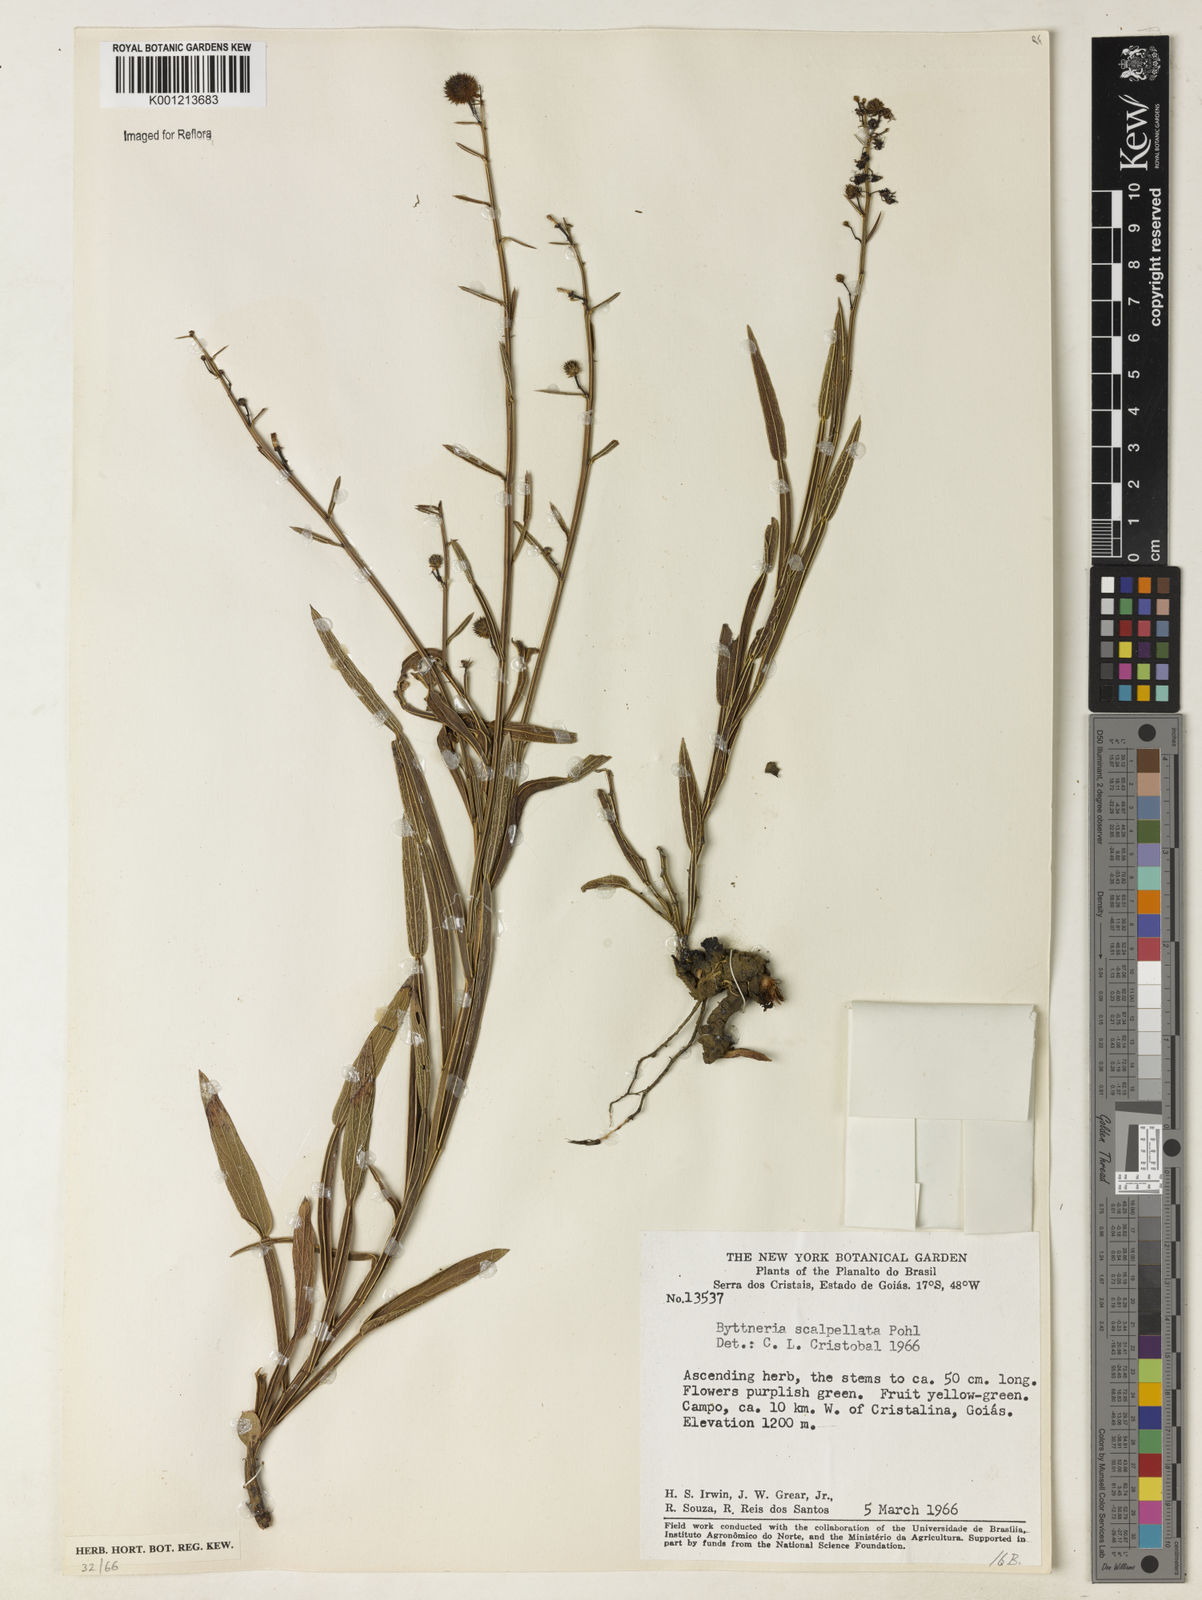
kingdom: Plantae
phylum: Tracheophyta
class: Magnoliopsida
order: Malvales
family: Malvaceae
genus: Byttneria
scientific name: Byttneria scalpellata
